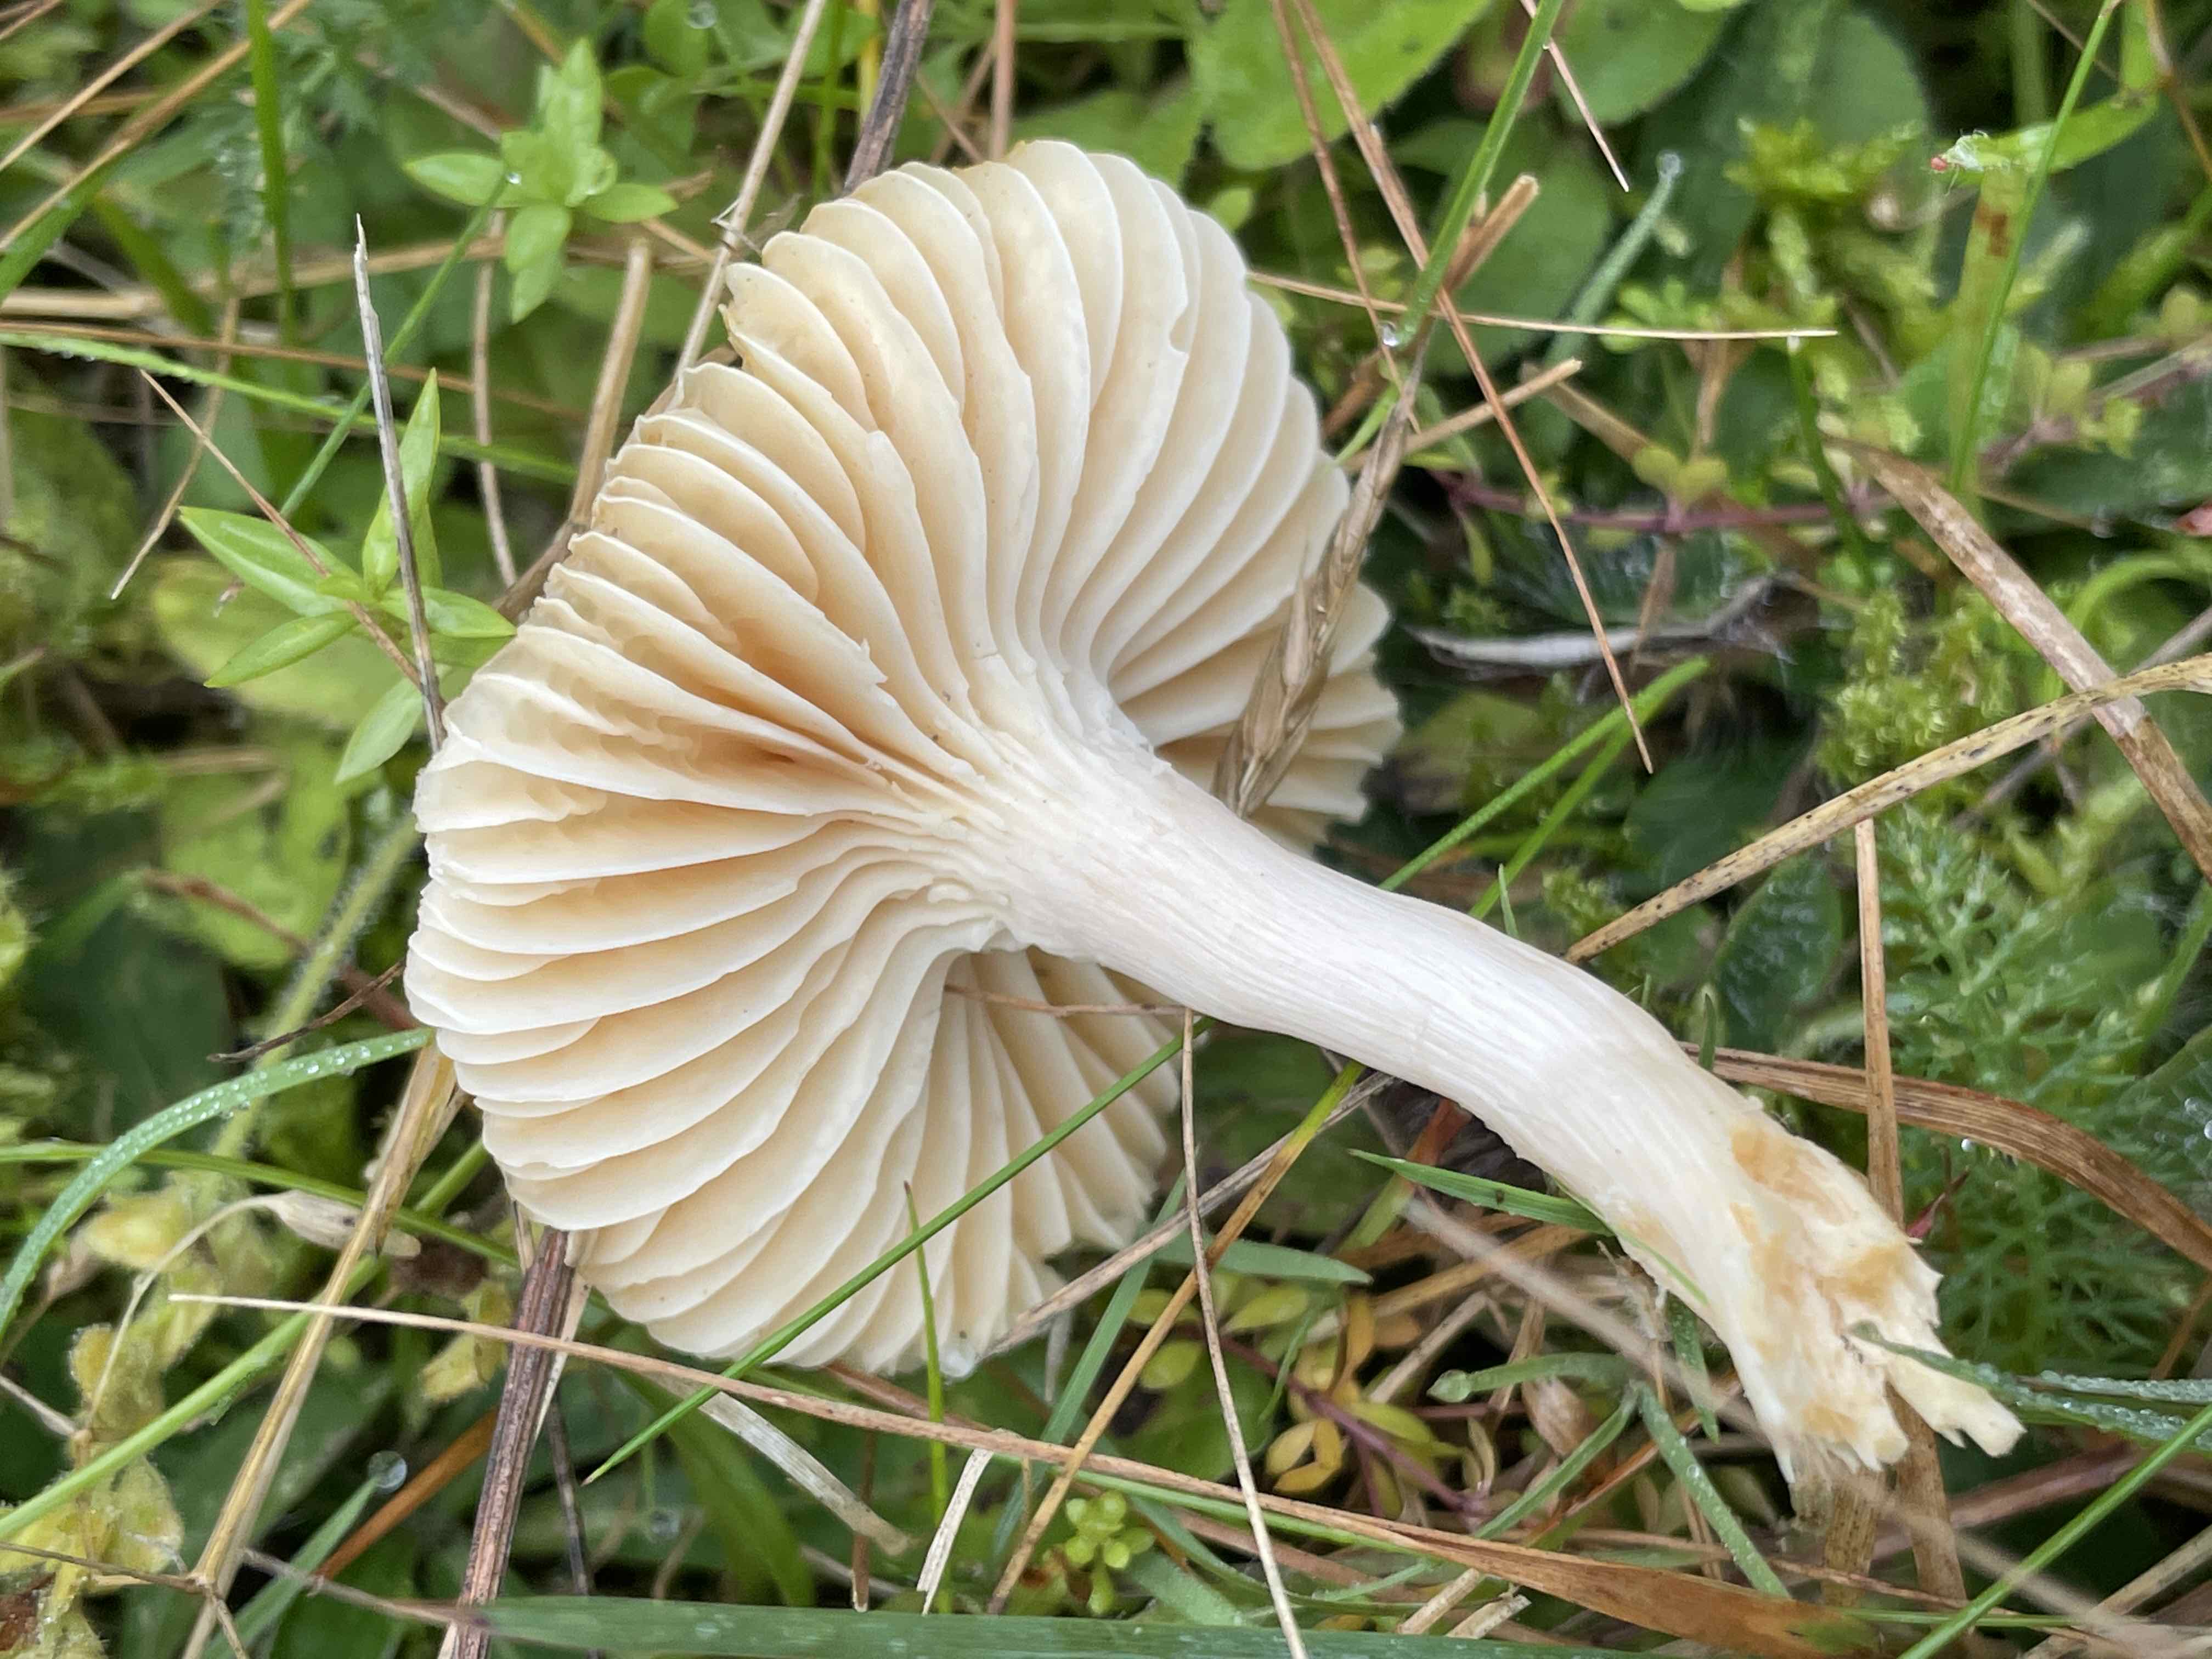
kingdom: Fungi
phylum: Basidiomycota
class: Agaricomycetes
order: Agaricales
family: Hygrophoraceae
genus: Cuphophyllus
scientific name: Cuphophyllus pratensis
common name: eng-vokshat
